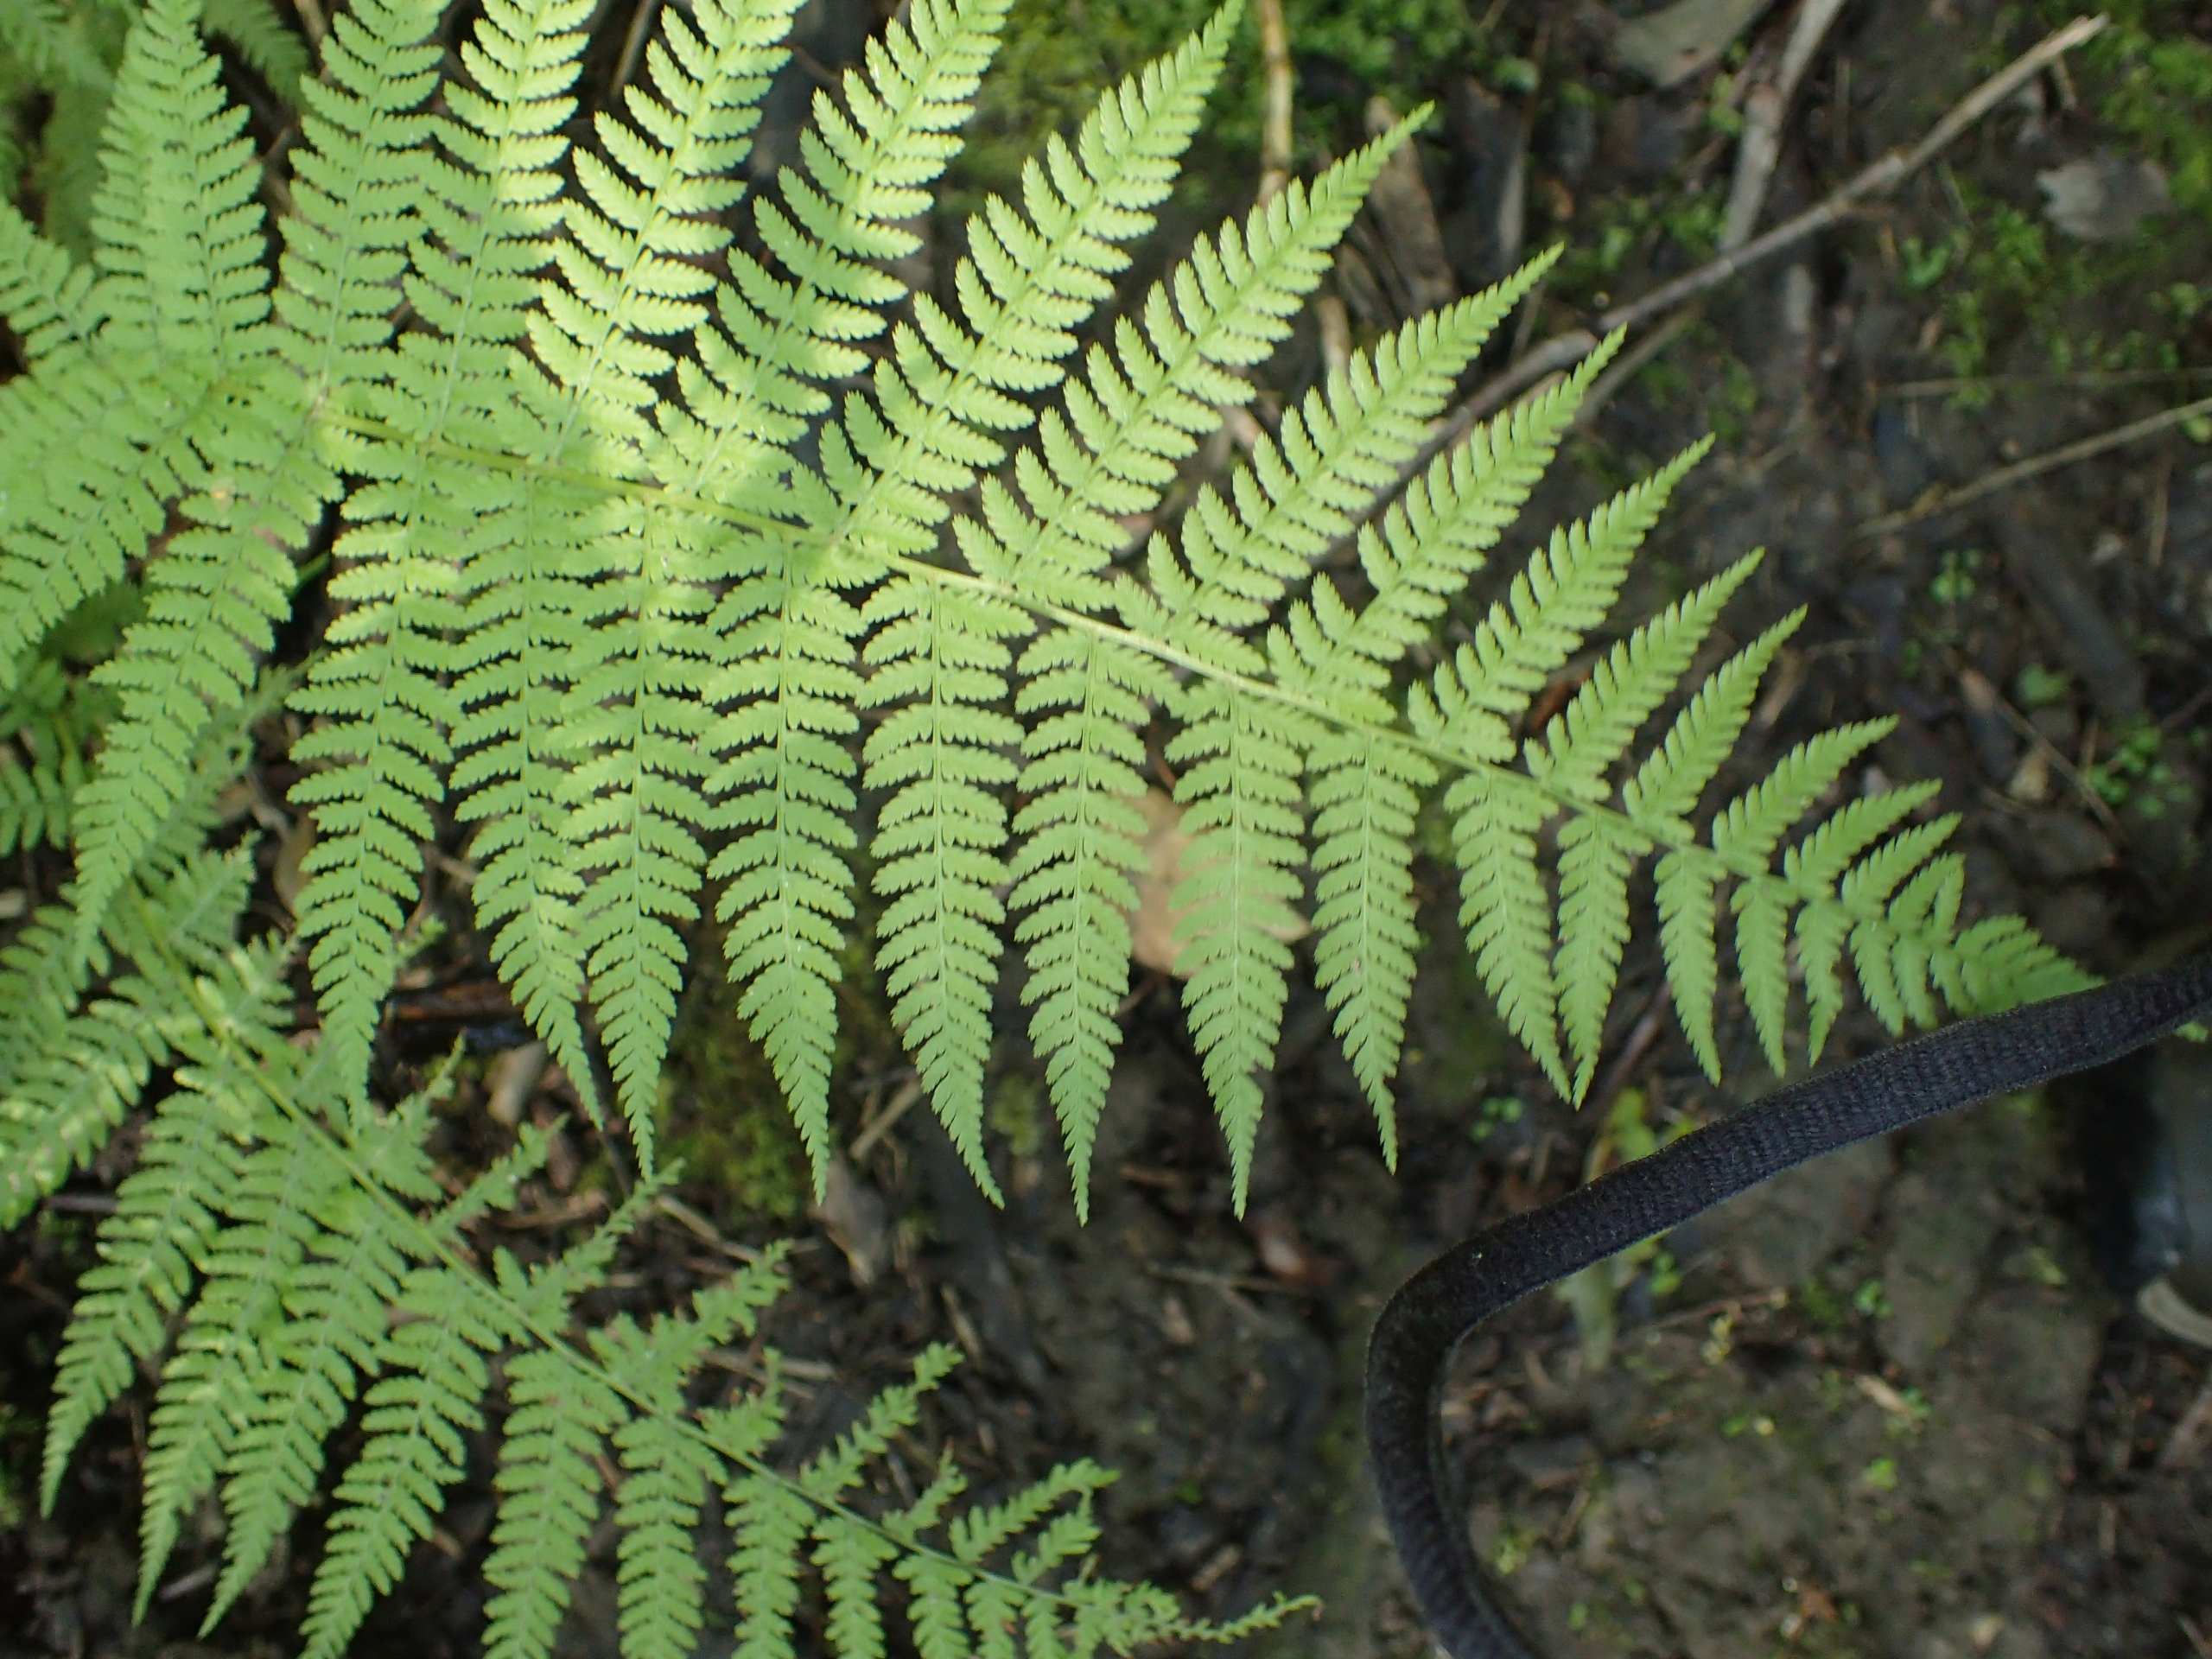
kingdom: Plantae
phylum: Tracheophyta
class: Polypodiopsida
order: Polypodiales
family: Athyriaceae
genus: Athyrium
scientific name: Athyrium filix-femina
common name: Fjerbregne
